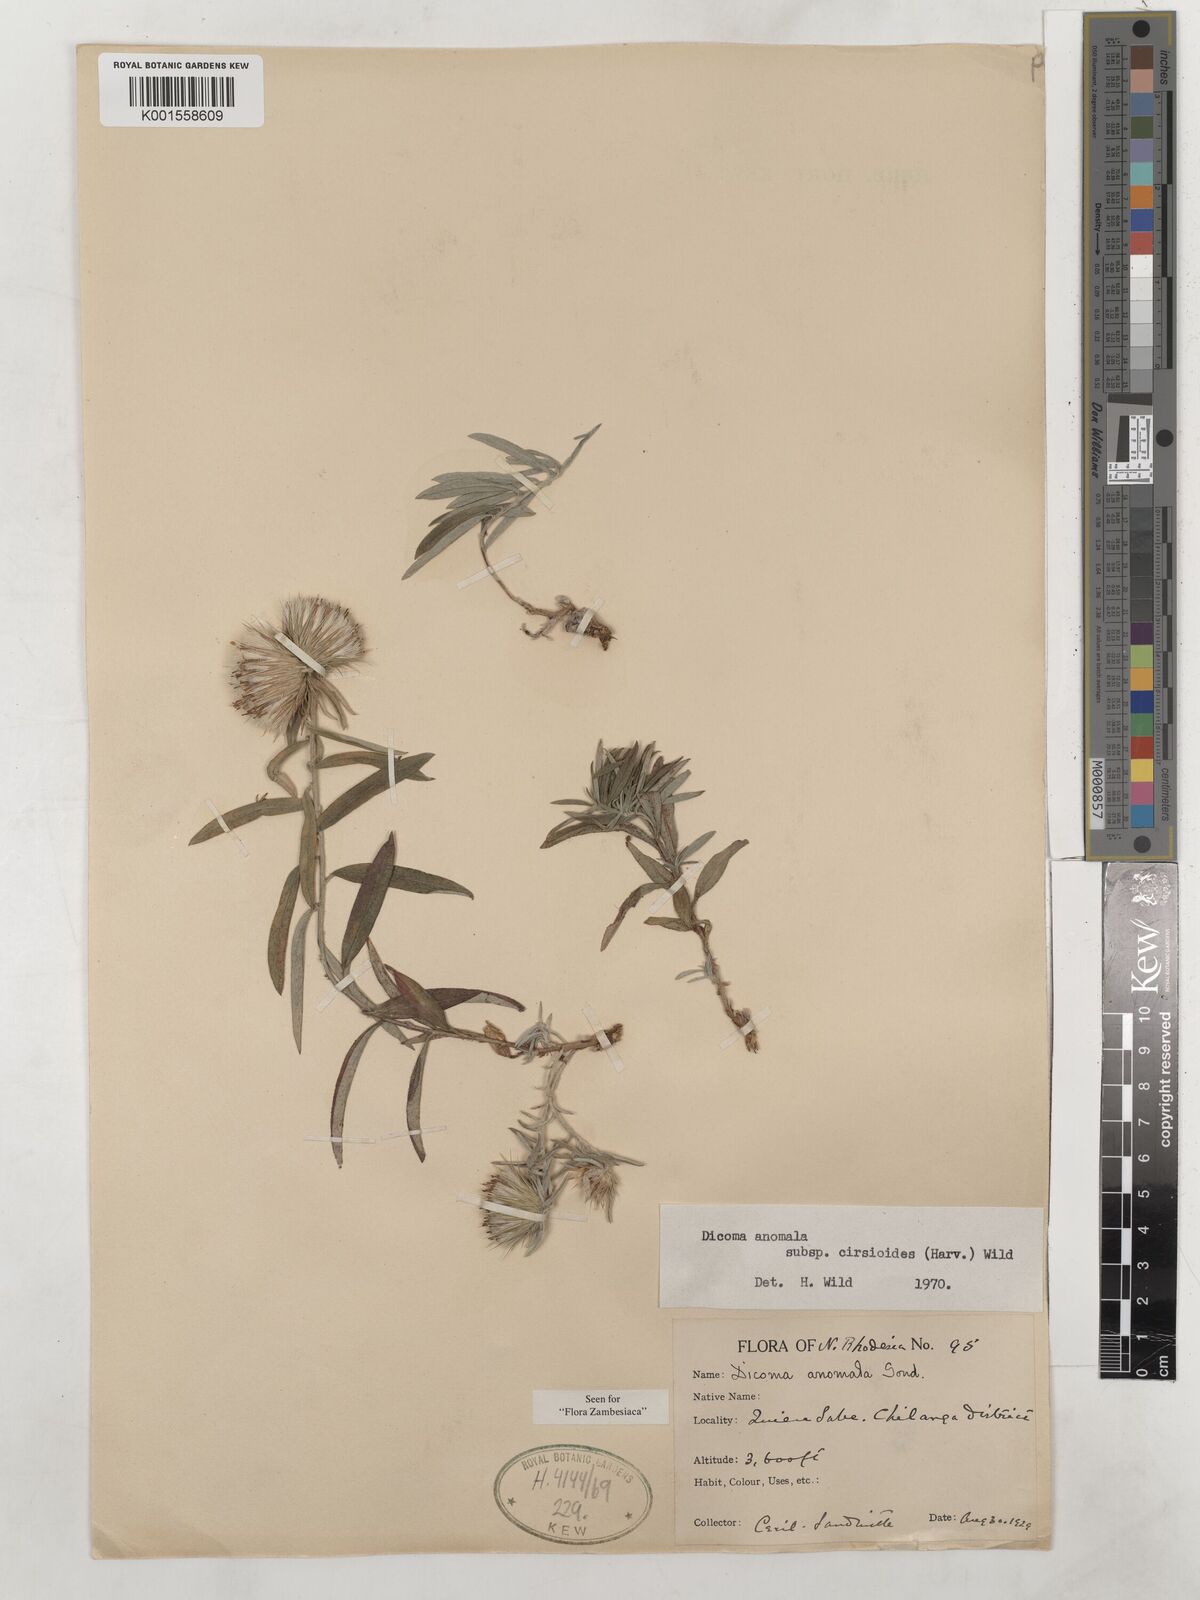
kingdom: Plantae
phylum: Tracheophyta
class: Magnoliopsida
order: Asterales
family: Asteraceae
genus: Dicoma
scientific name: Dicoma anomala
